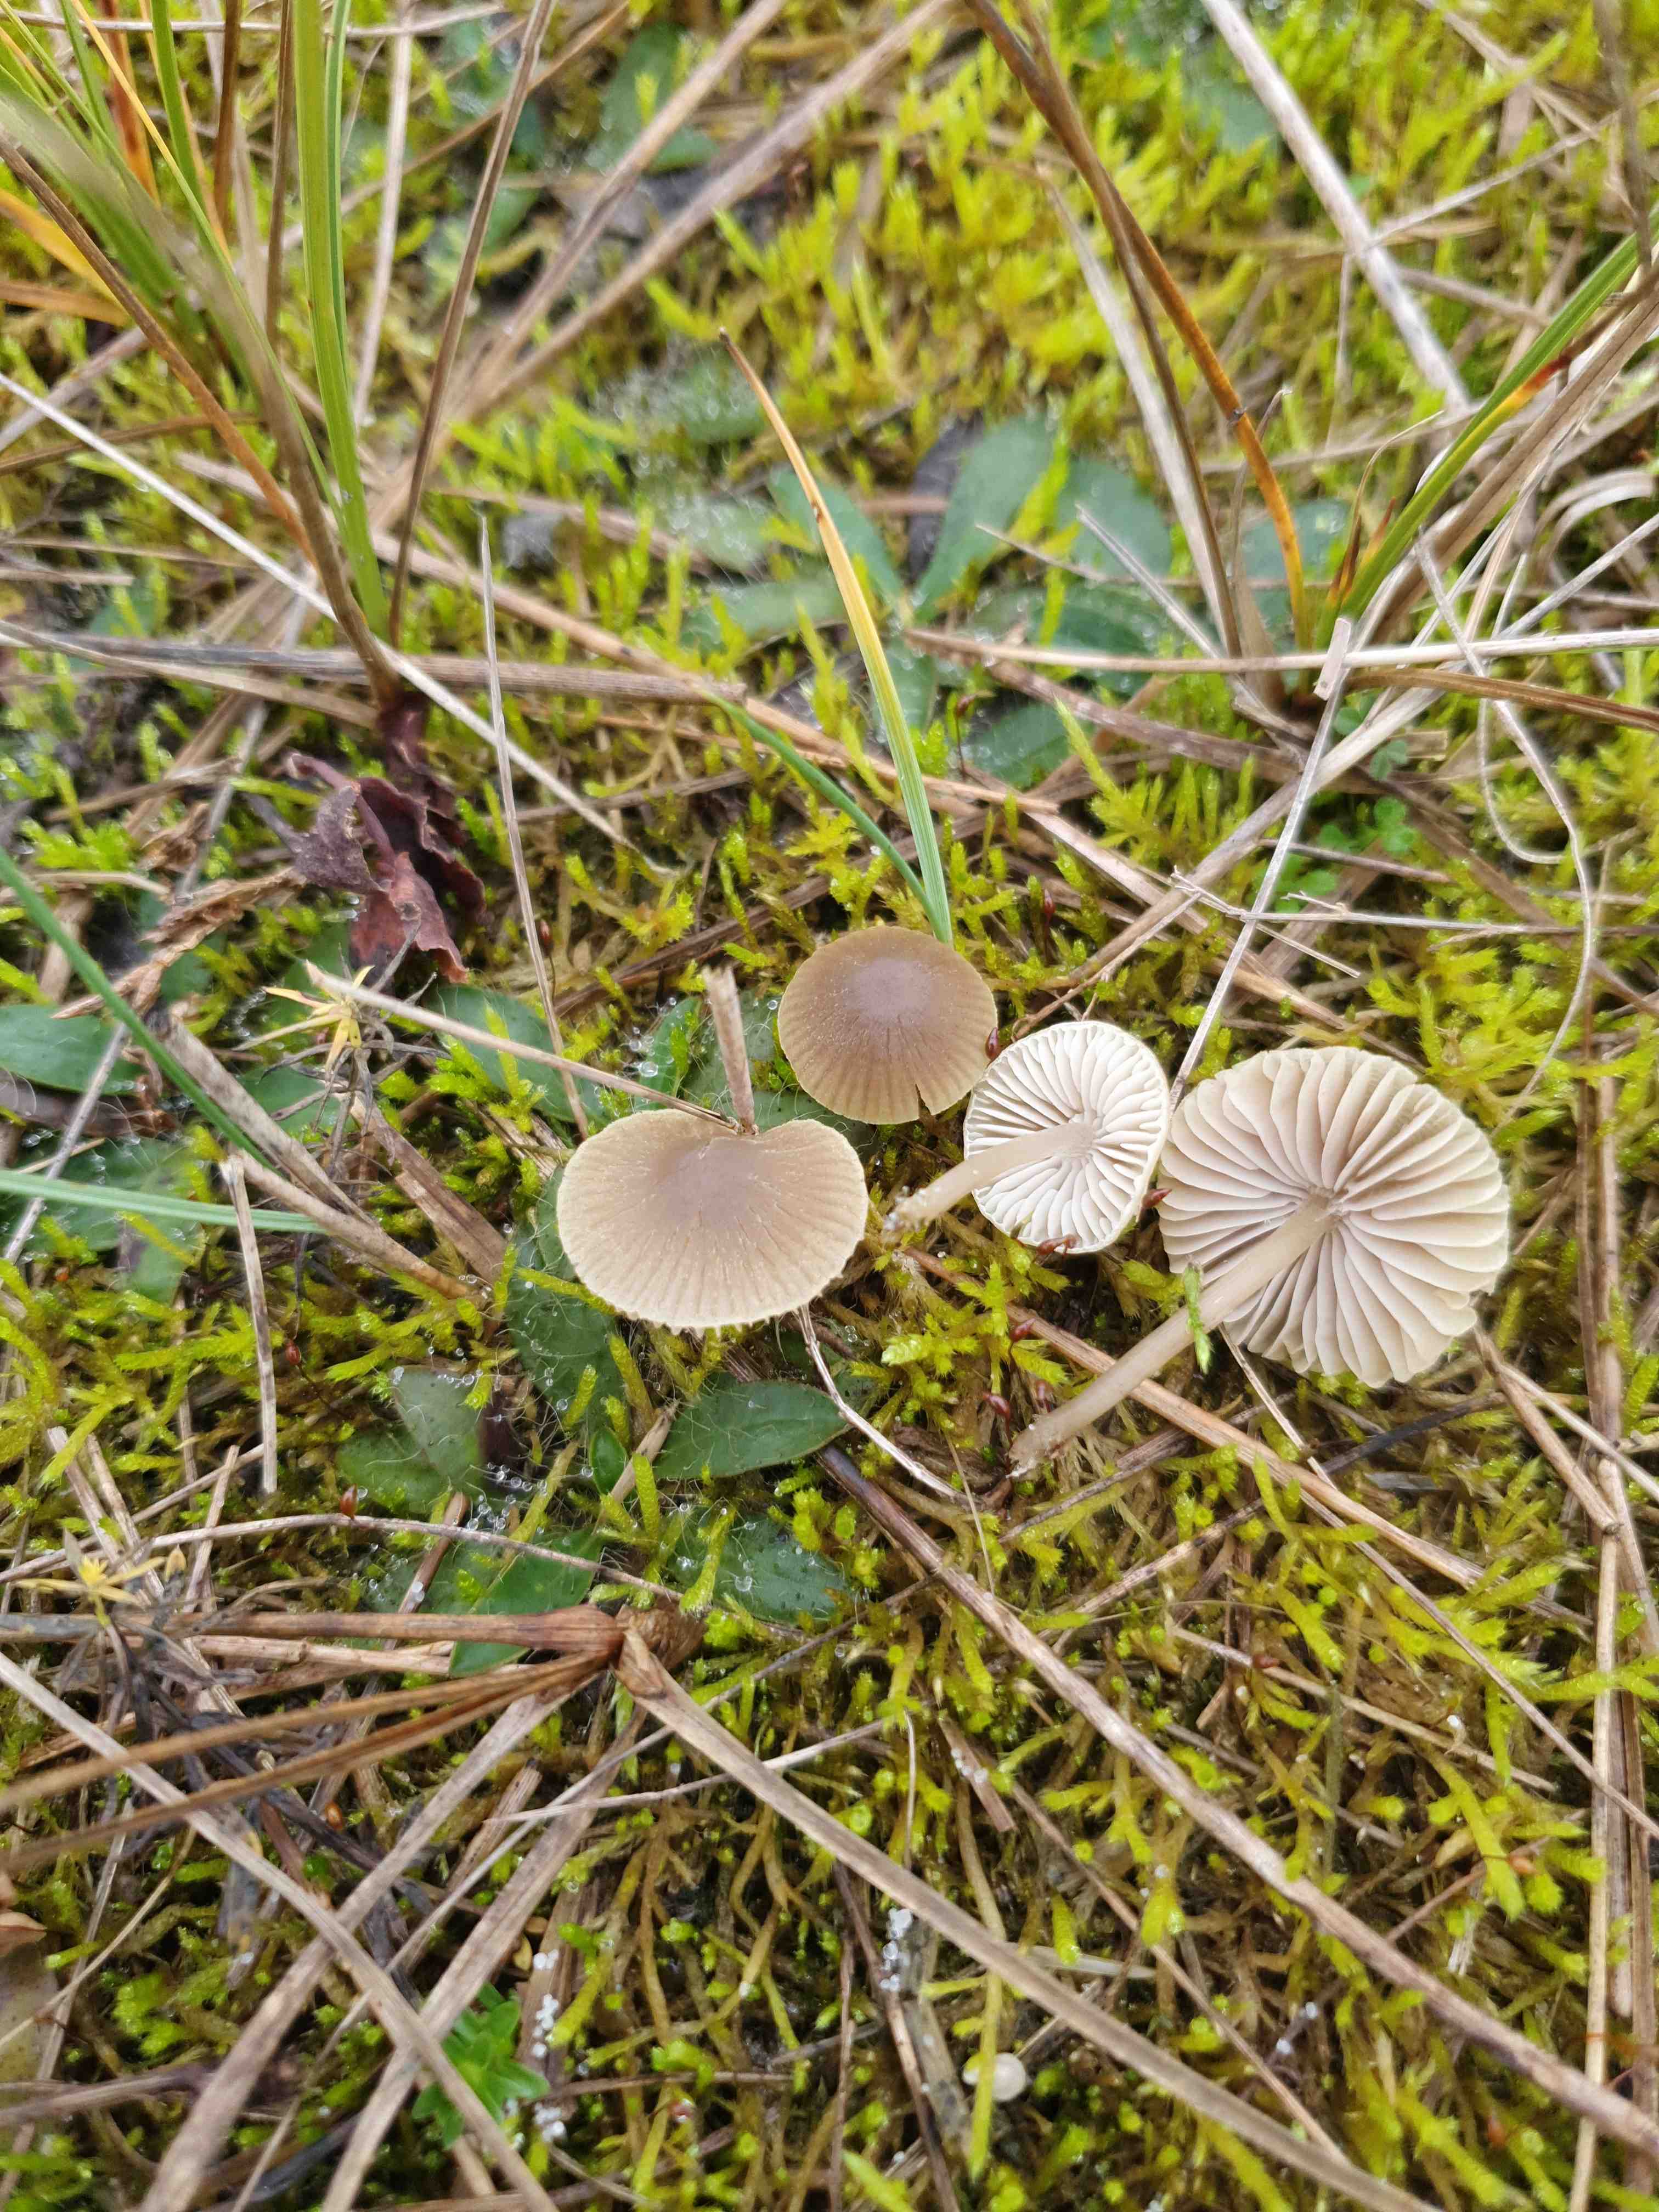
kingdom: Fungi
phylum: Basidiomycota
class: Agaricomycetes
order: Agaricales
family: Mycenaceae
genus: Mycena
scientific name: Mycena
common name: huesvamp
